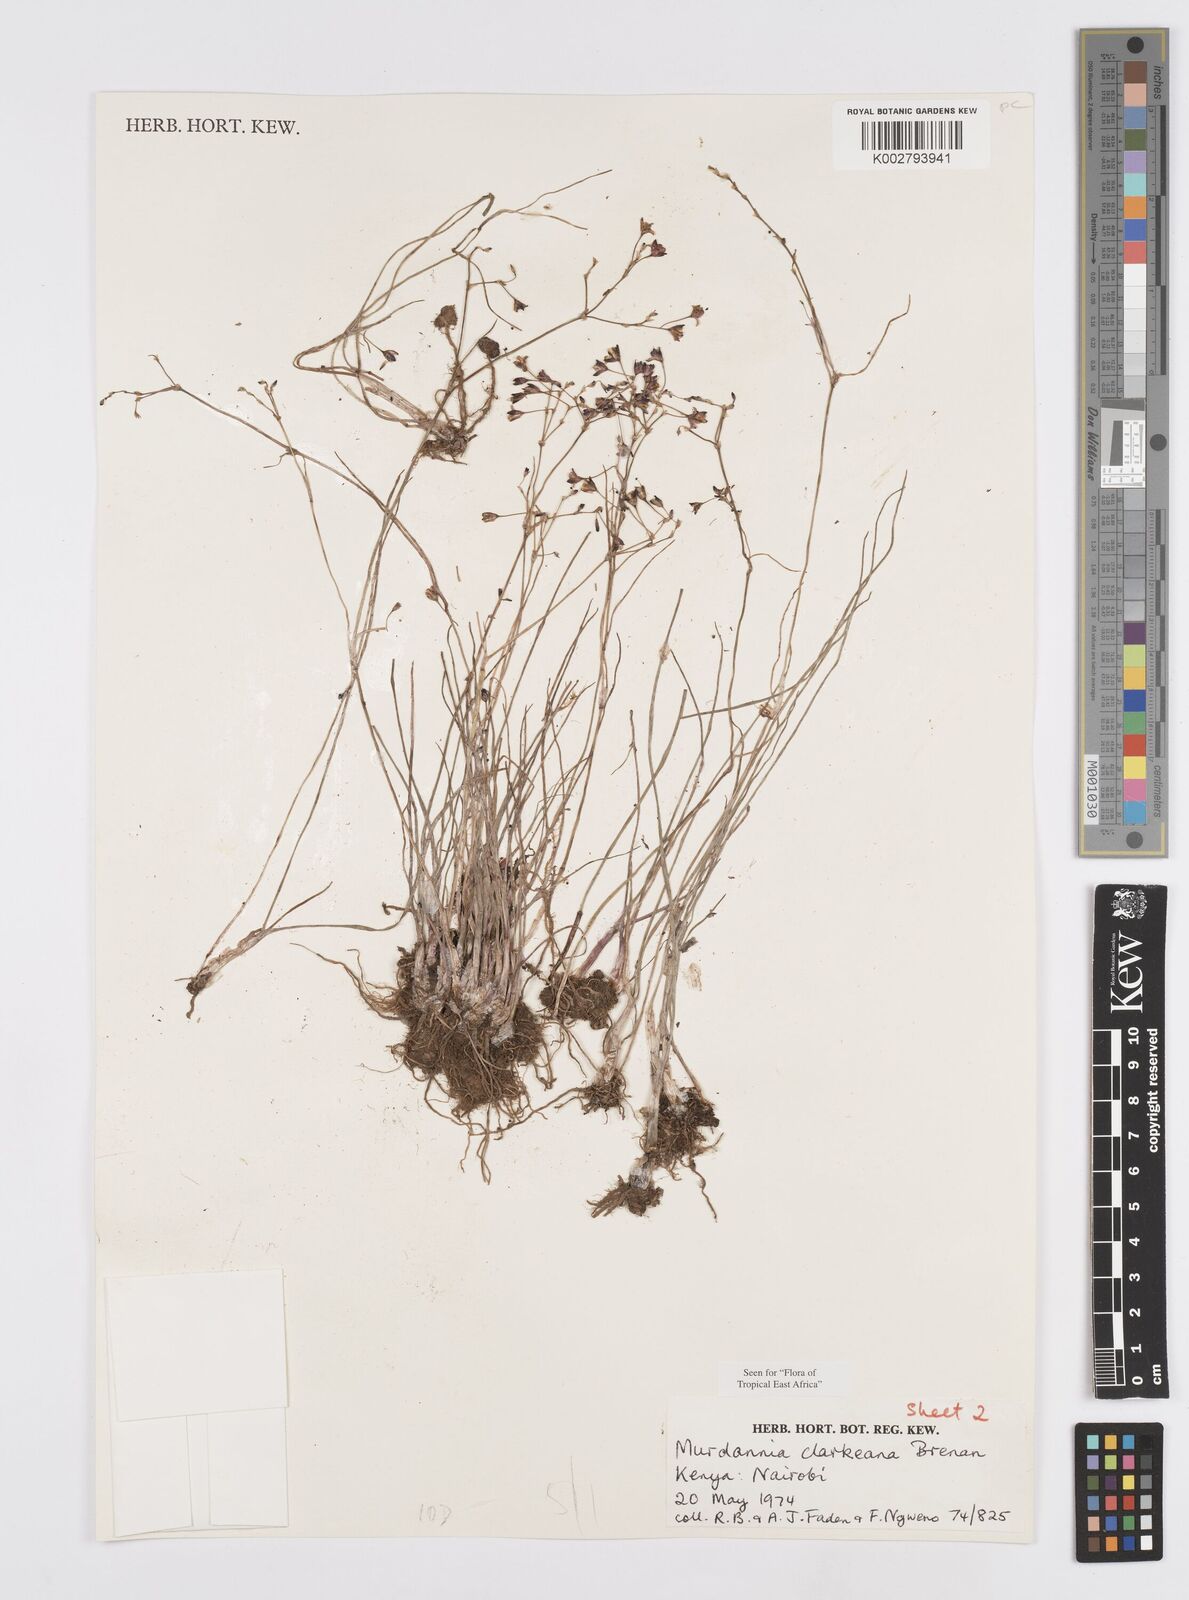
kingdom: Plantae
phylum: Tracheophyta
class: Liliopsida
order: Commelinales
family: Commelinaceae
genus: Murdannia
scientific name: Murdannia clarkeana
